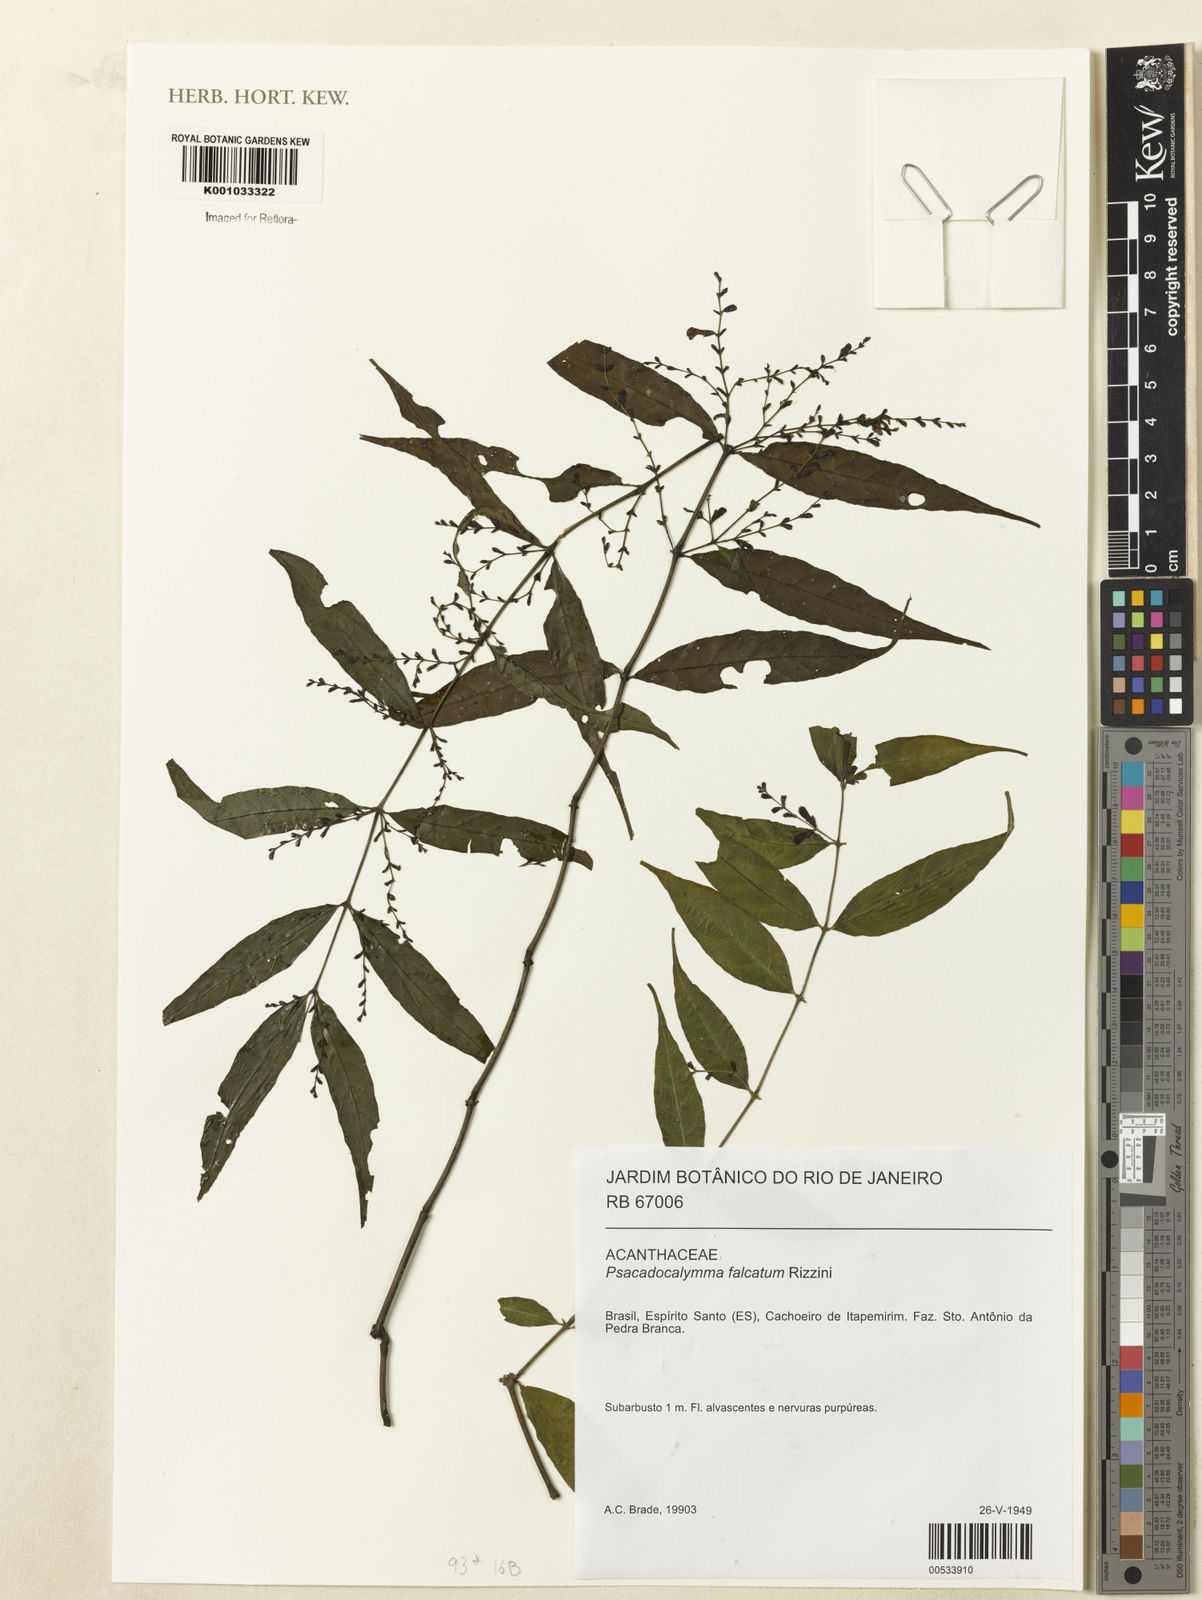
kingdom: Plantae
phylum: Tracheophyta
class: Magnoliopsida
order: Lamiales
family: Acanthaceae
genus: Dicliptera
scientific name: Dicliptera falcata
